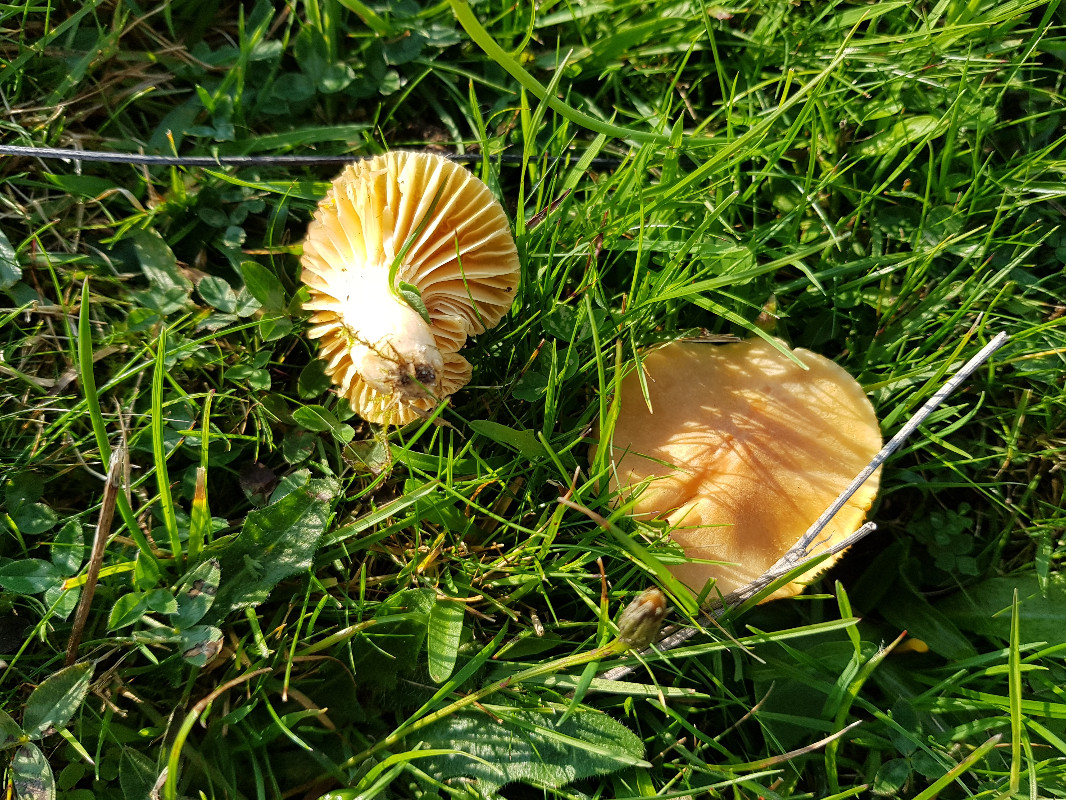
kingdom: Fungi
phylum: Basidiomycota
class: Agaricomycetes
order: Agaricales
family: Hygrophoraceae
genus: Cuphophyllus
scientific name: Cuphophyllus pratensis
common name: eng-vokshat
